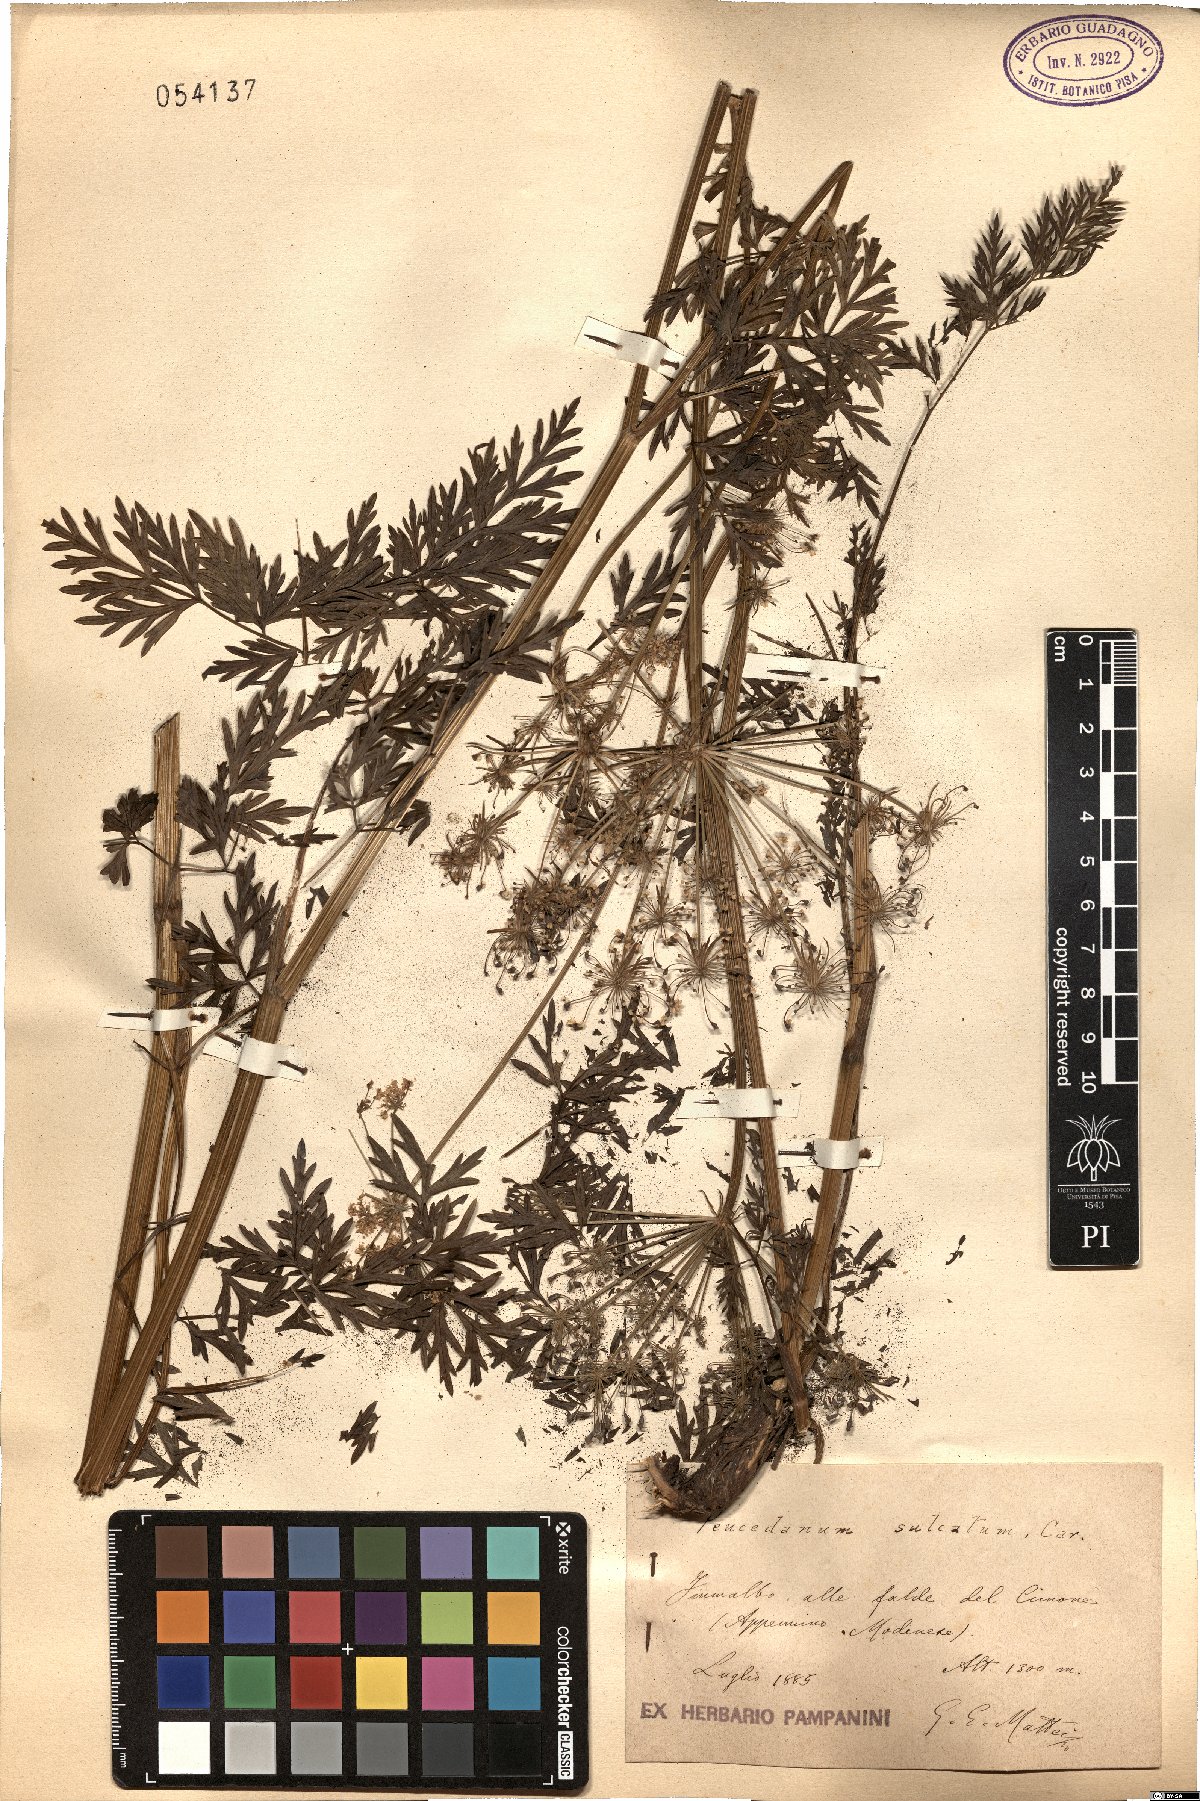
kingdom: Plantae
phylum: Tracheophyta
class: Magnoliopsida
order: Apiales
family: Apiaceae
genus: Cynorhiza
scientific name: Cynorhiza typica
